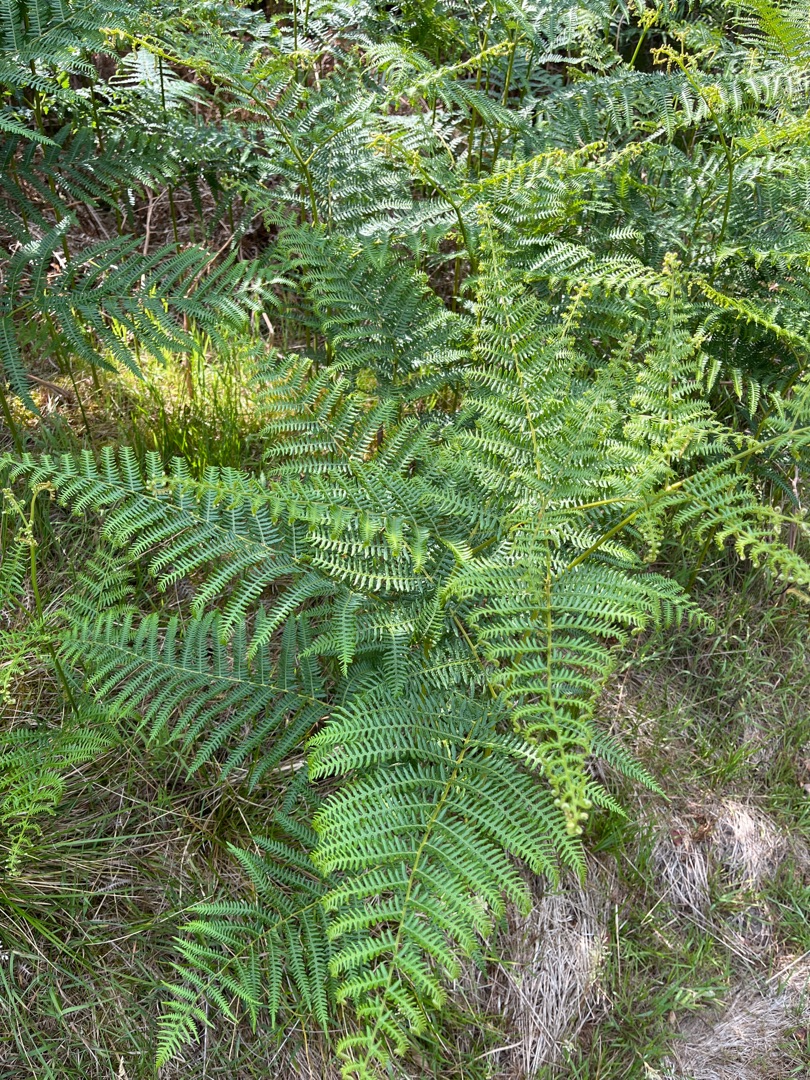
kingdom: Plantae
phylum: Tracheophyta
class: Polypodiopsida
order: Polypodiales
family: Dennstaedtiaceae
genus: Pteridium
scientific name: Pteridium aquilinum
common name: Ørnebregne
